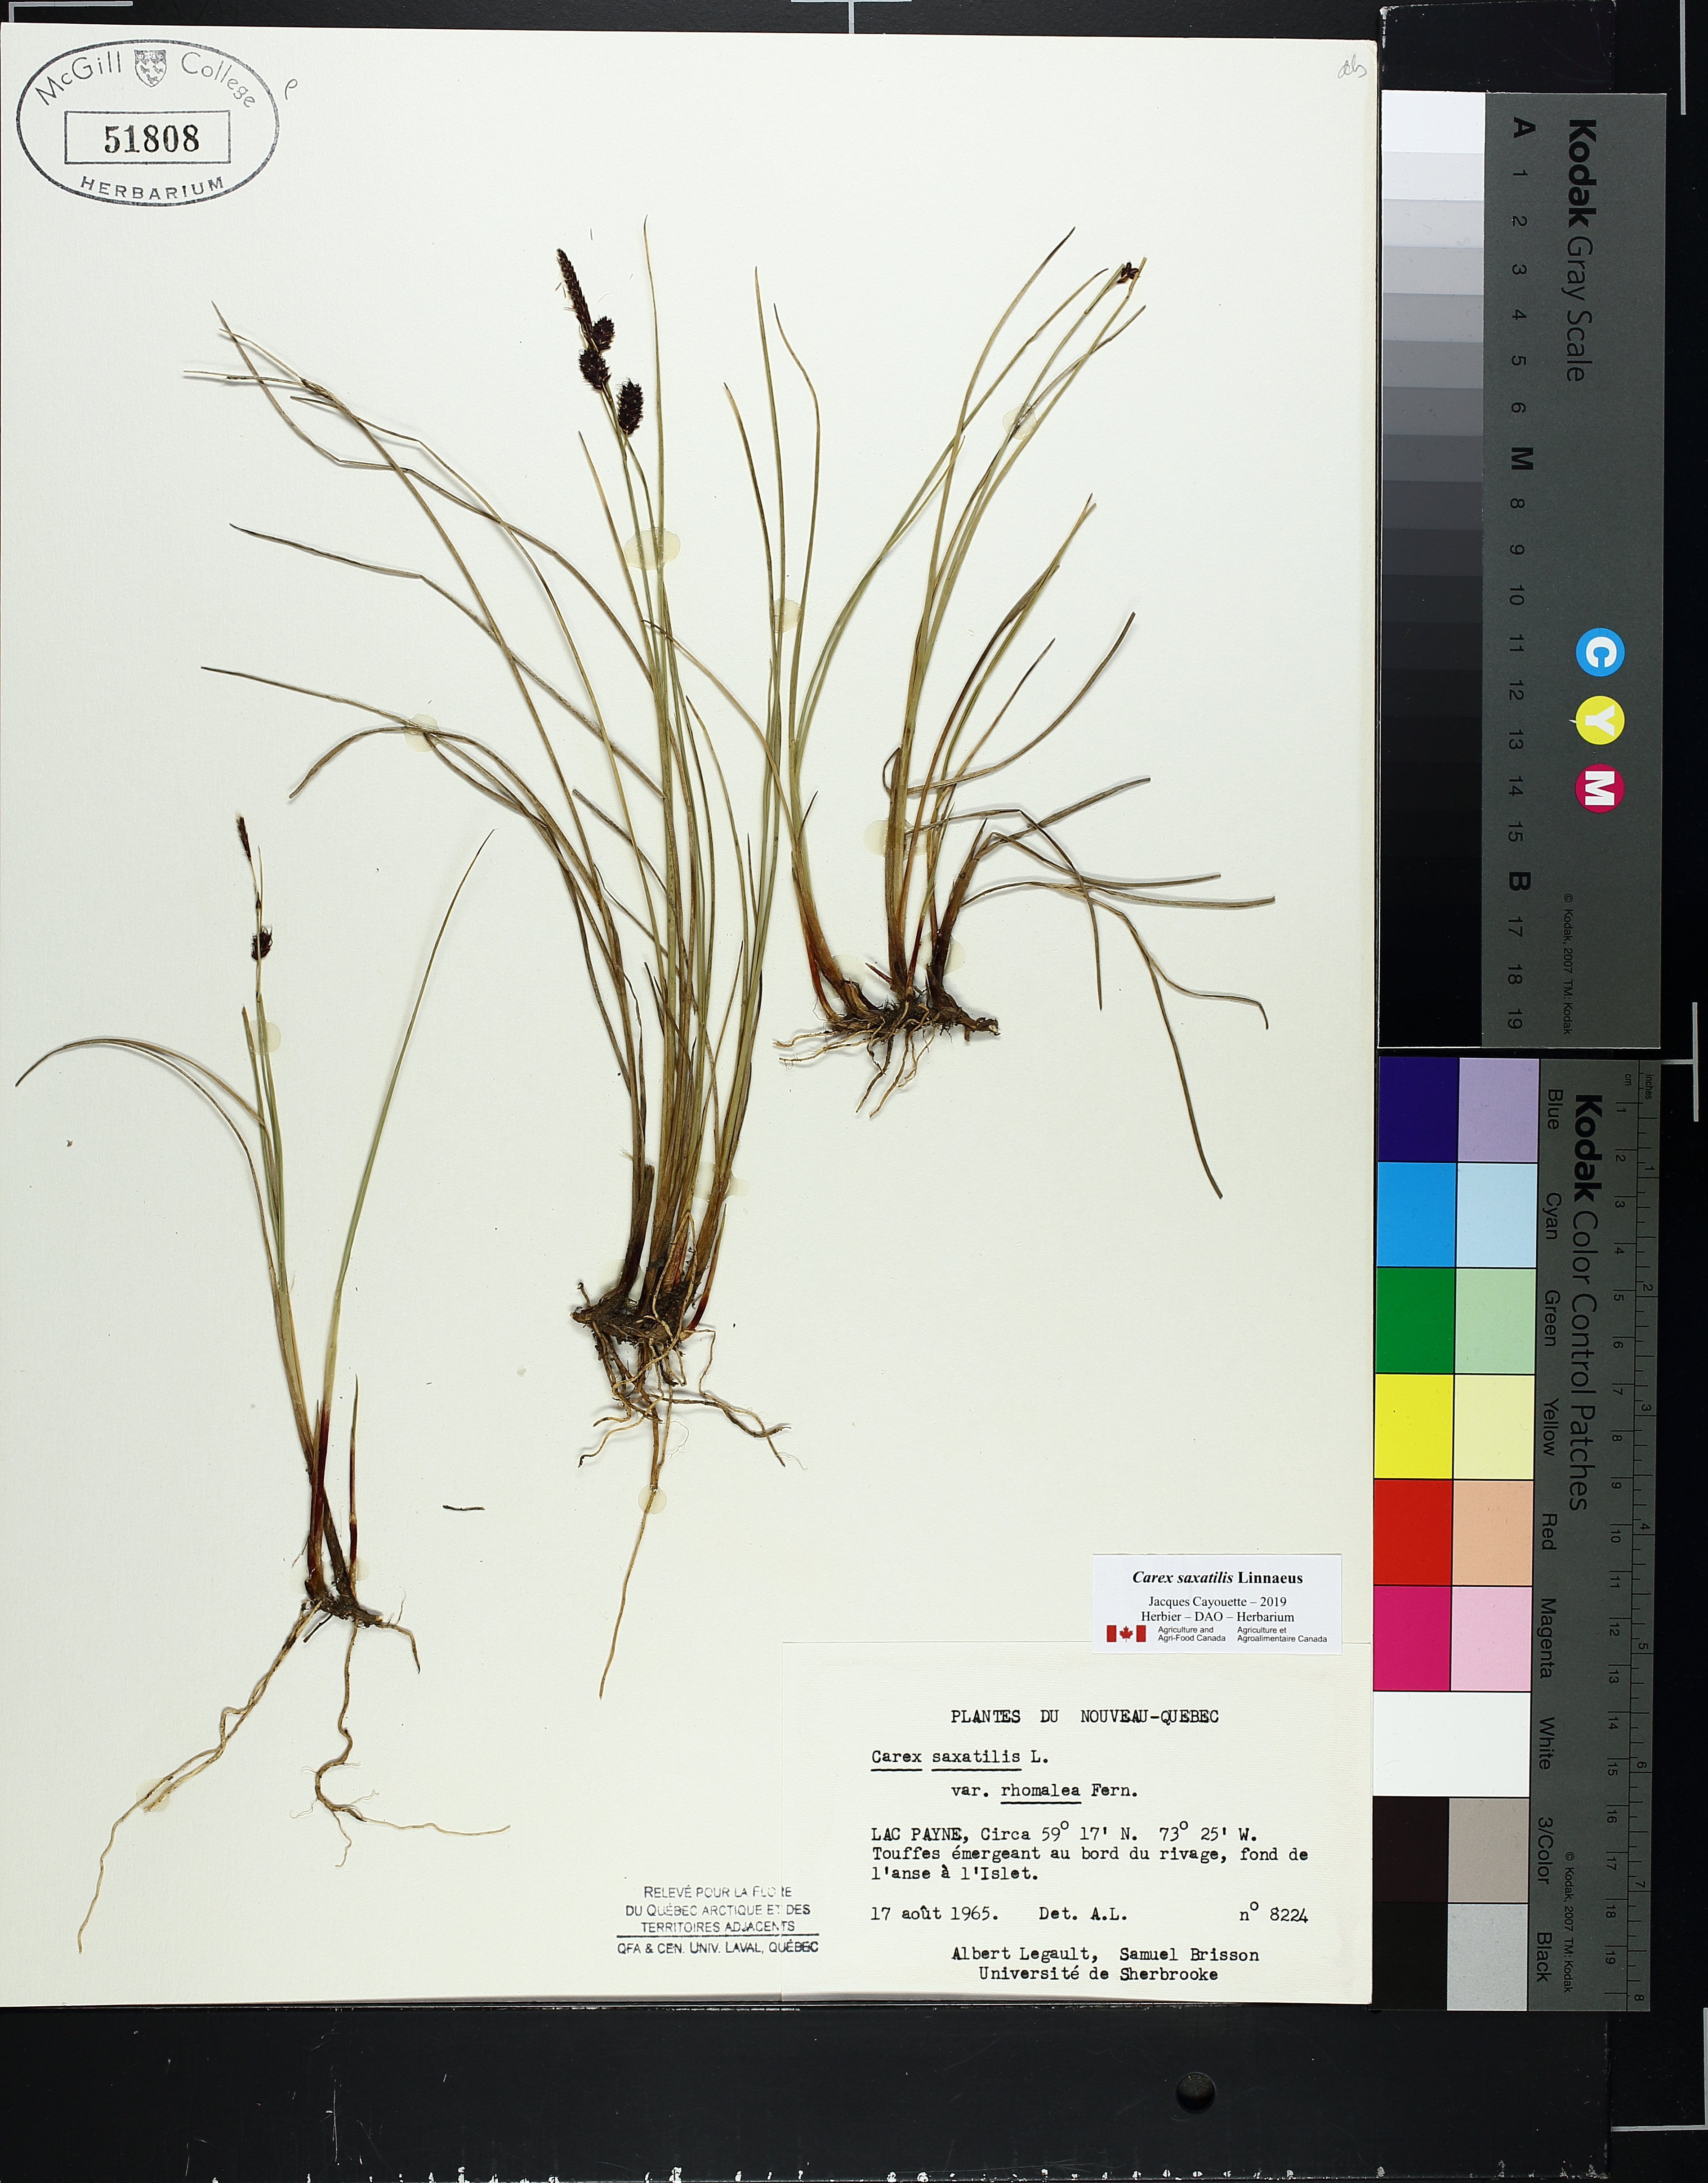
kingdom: Plantae
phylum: Tracheophyta
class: Liliopsida
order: Poales
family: Cyperaceae
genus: Carex
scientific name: Carex saxatilis
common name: Russet sedge
